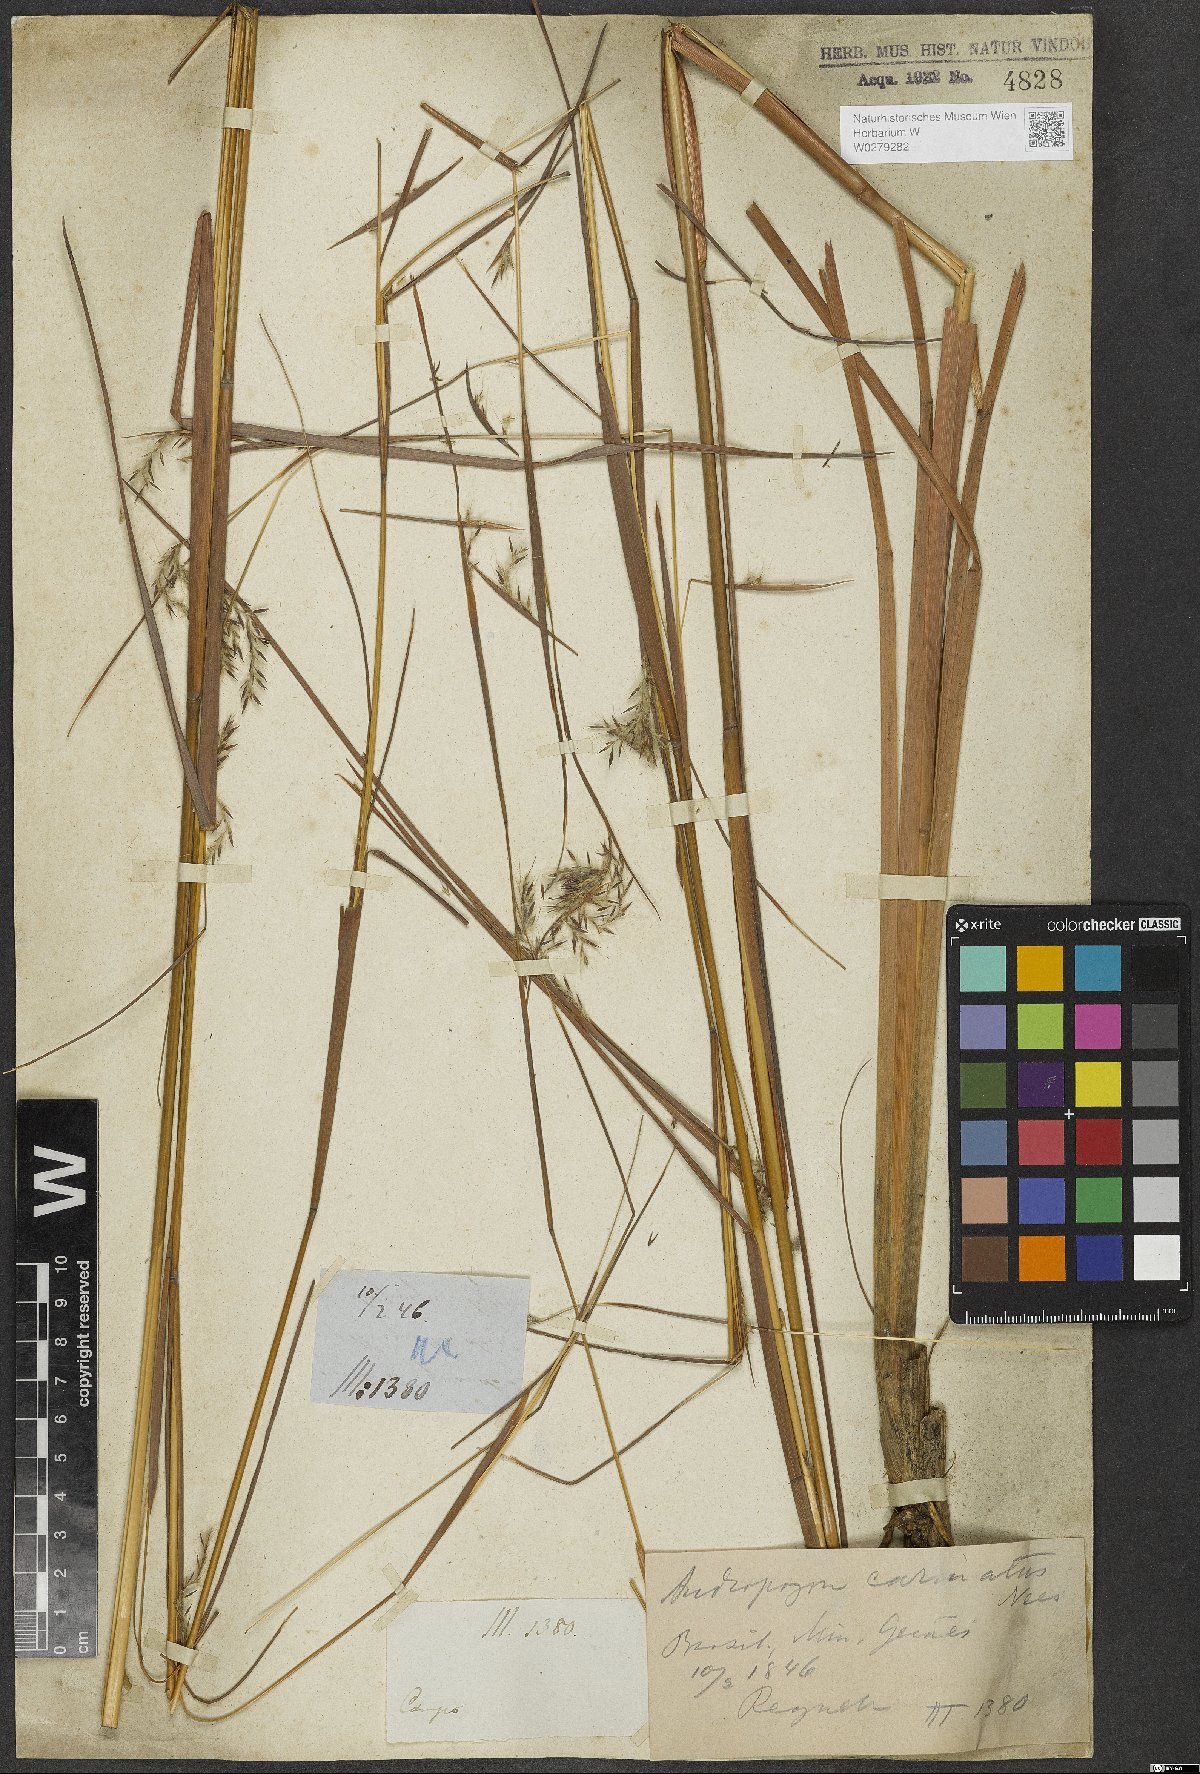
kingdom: Plantae
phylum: Tracheophyta
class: Liliopsida
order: Poales
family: Poaceae
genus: Andropogon
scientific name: Andropogon carinatus
